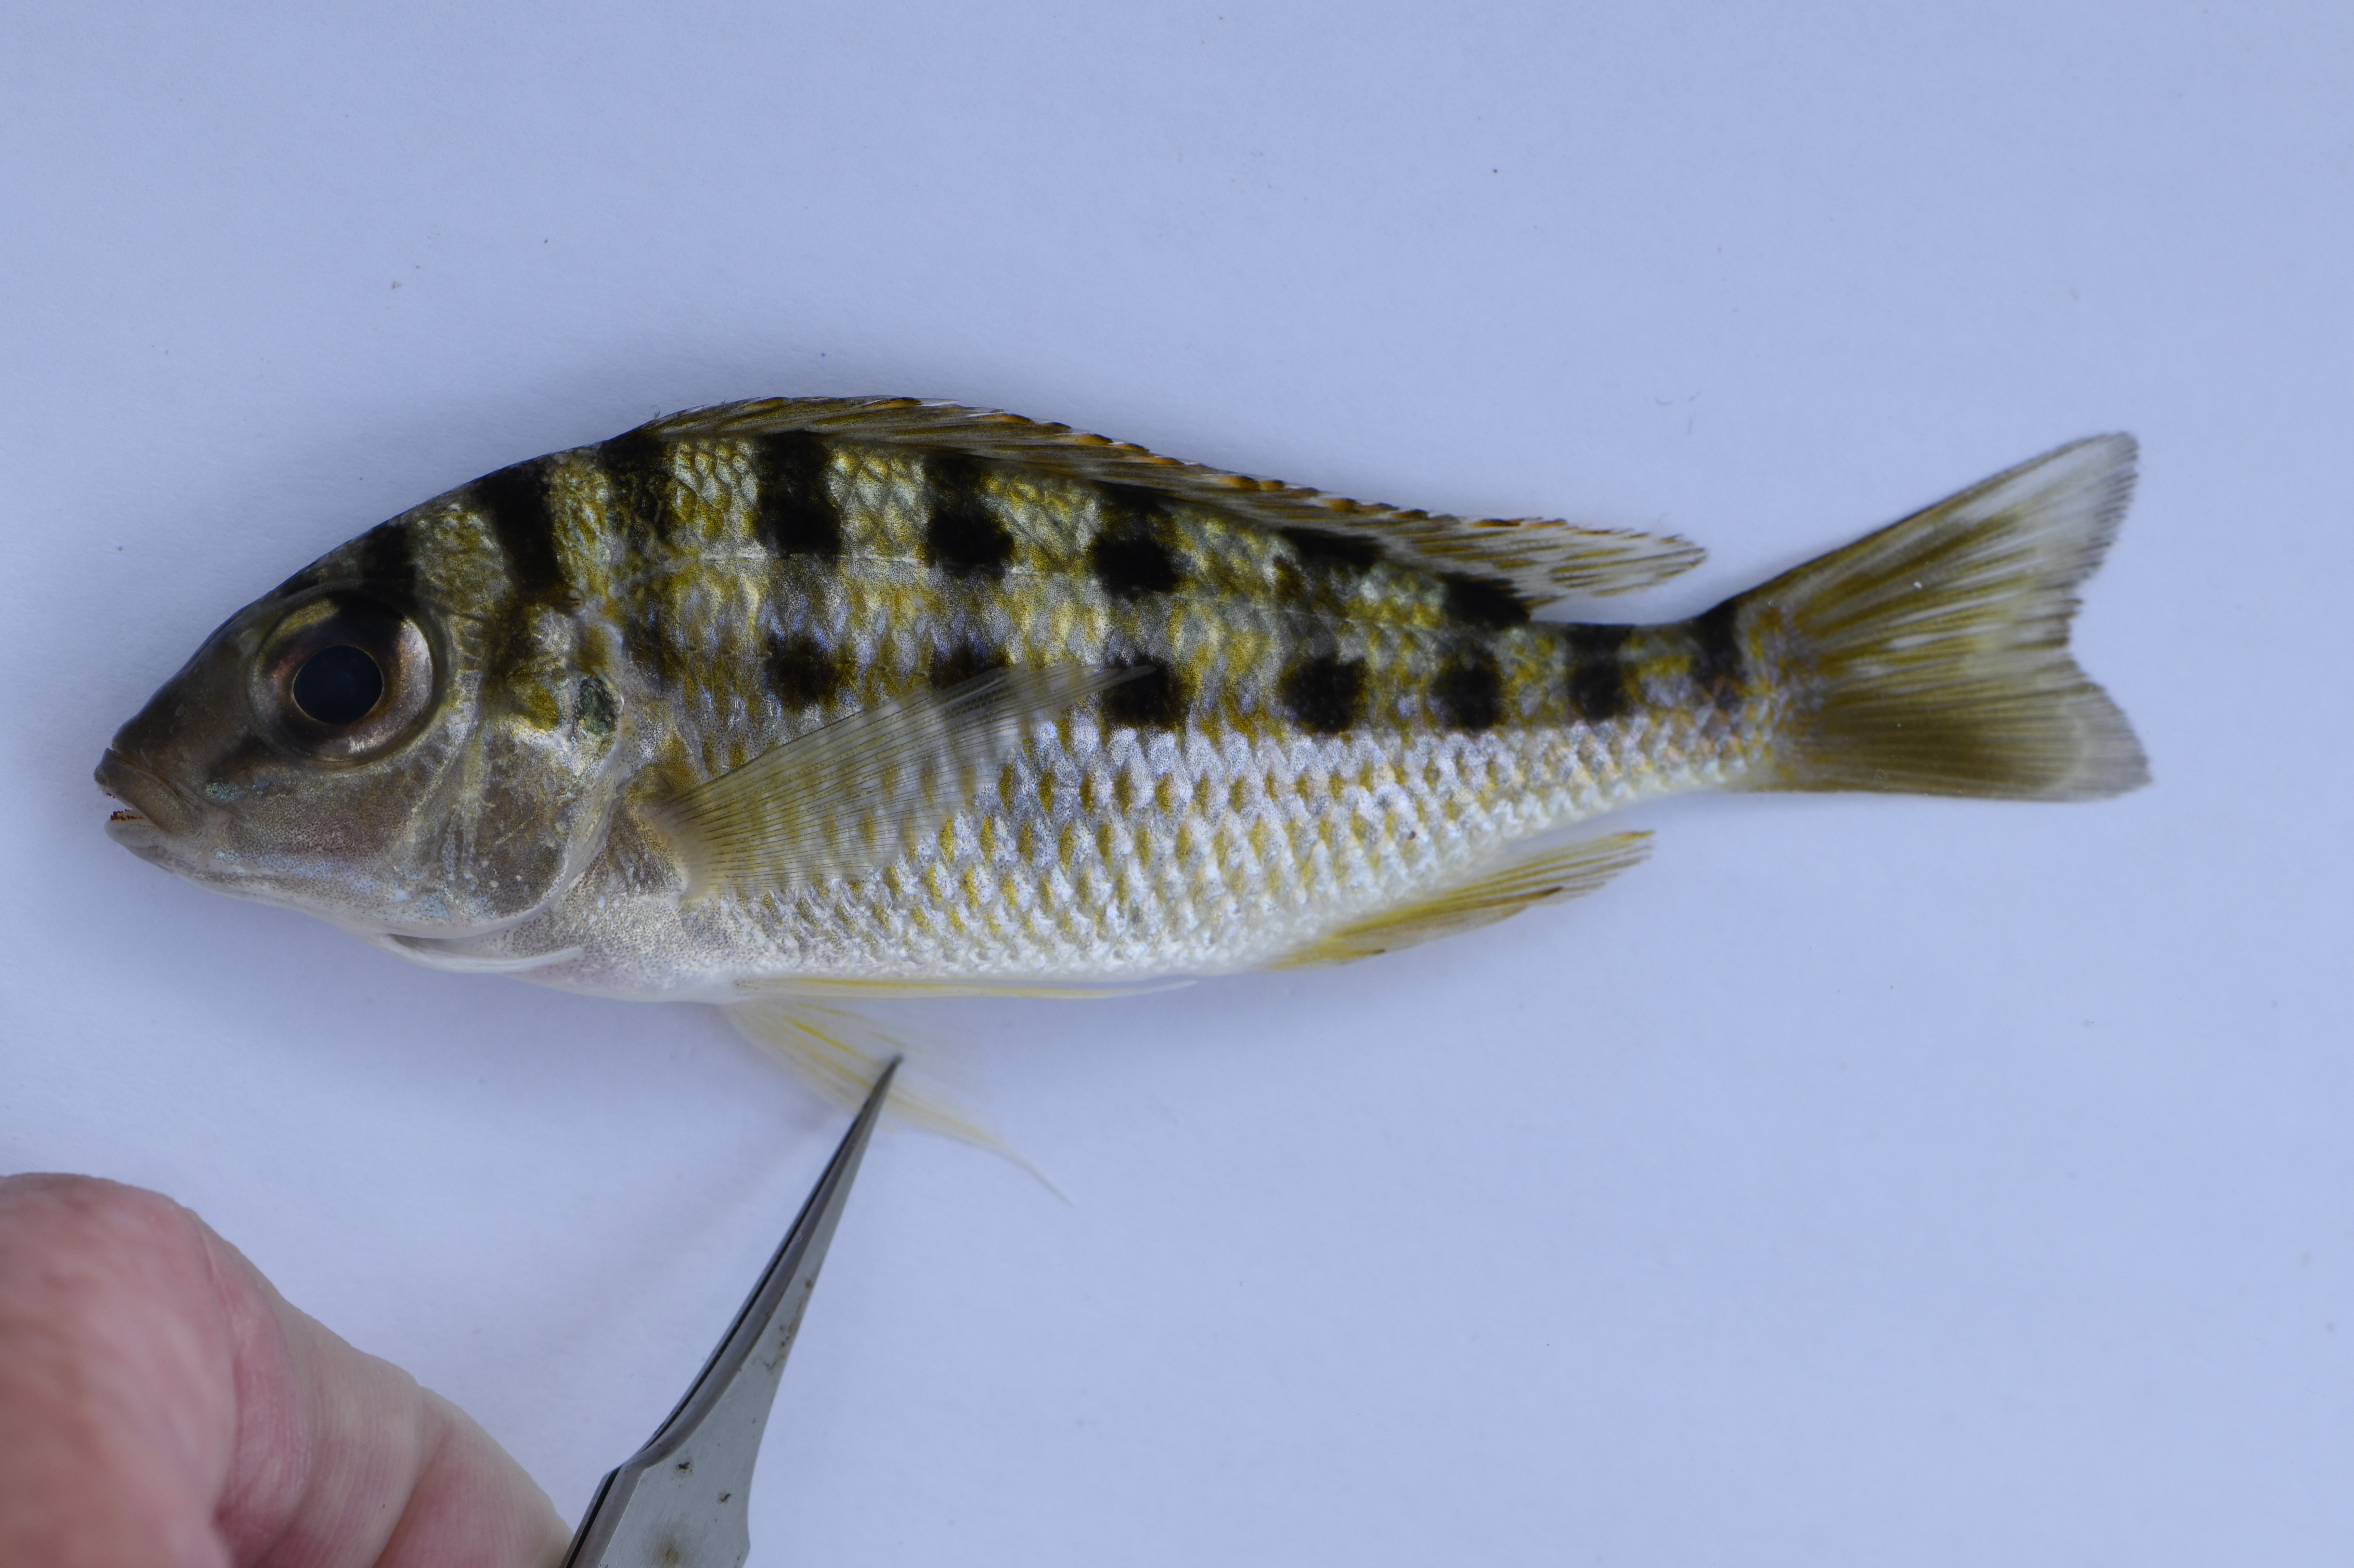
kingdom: Animalia
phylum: Chordata
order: Perciformes
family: Cichlidae
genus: Limnotilapia
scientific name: Limnotilapia dardennii
